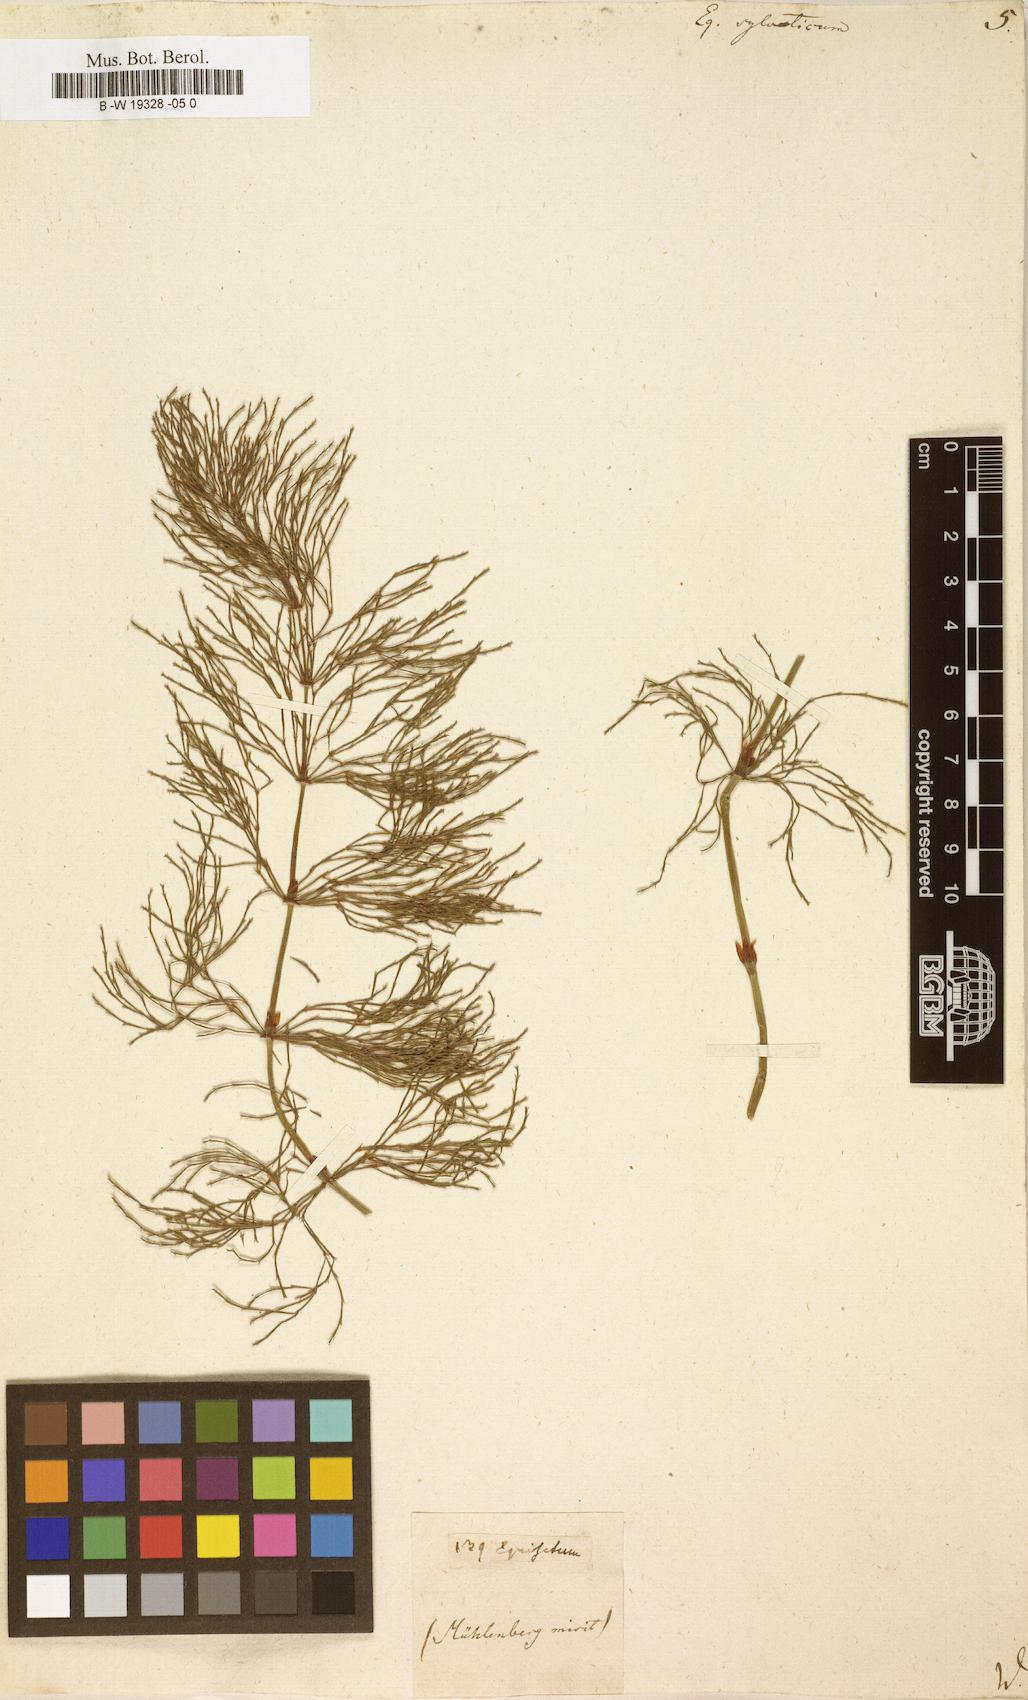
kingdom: Plantae
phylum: Tracheophyta
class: Polypodiopsida
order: Equisetales
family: Equisetaceae
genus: Equisetum
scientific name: Equisetum sylvaticum
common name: Wood horsetail
